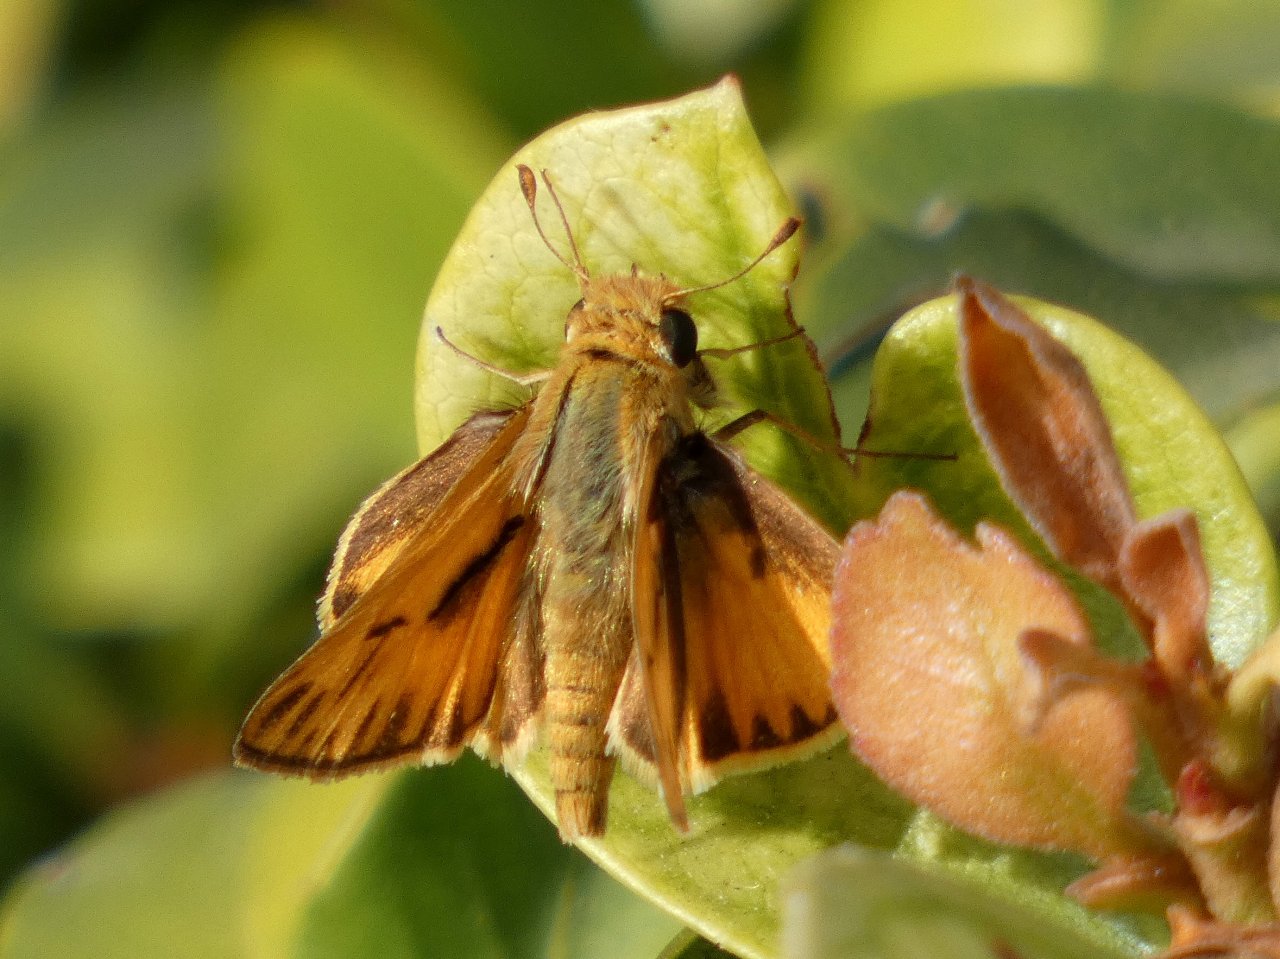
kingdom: Animalia
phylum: Arthropoda
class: Insecta
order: Lepidoptera
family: Hesperiidae
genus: Hylephila
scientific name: Hylephila phyleus
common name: Fiery Skipper
